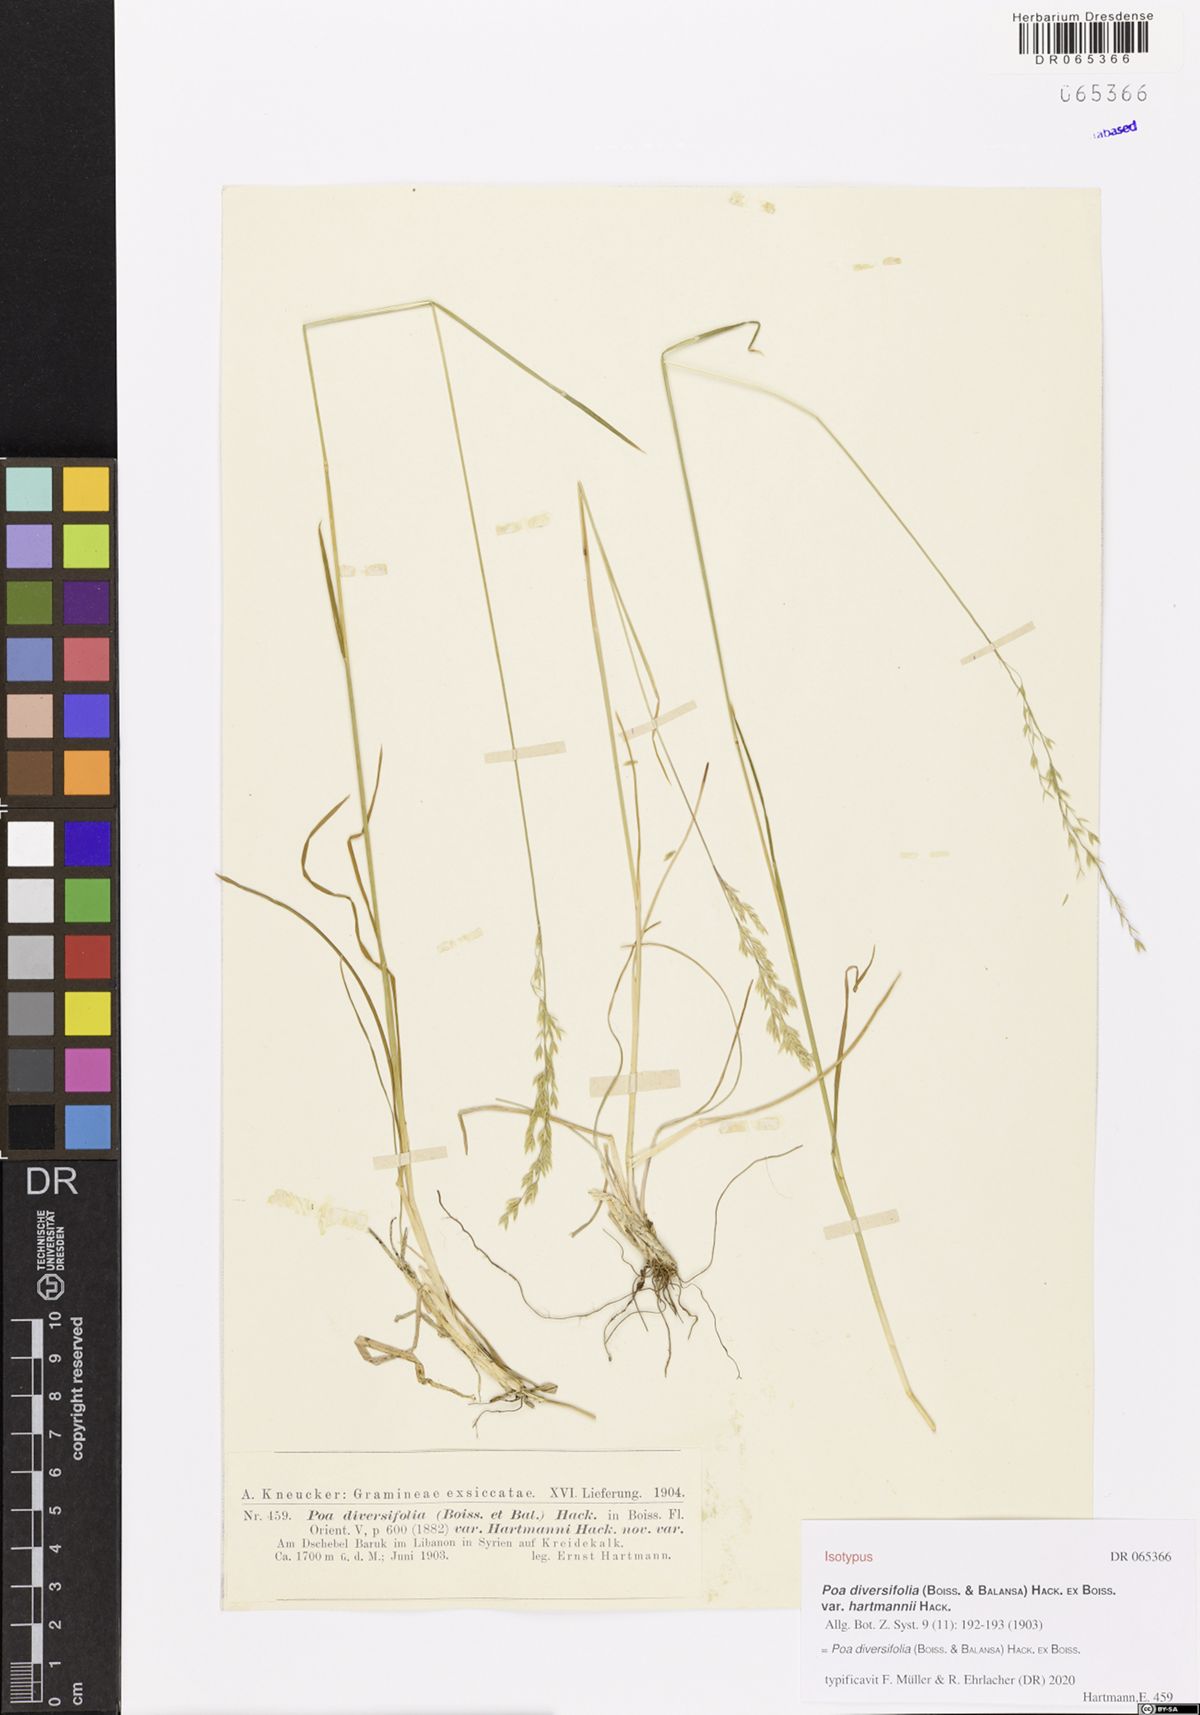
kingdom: Plantae
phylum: Tracheophyta
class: Liliopsida
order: Poales
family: Poaceae
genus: Poa
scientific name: Poa diversifolia
